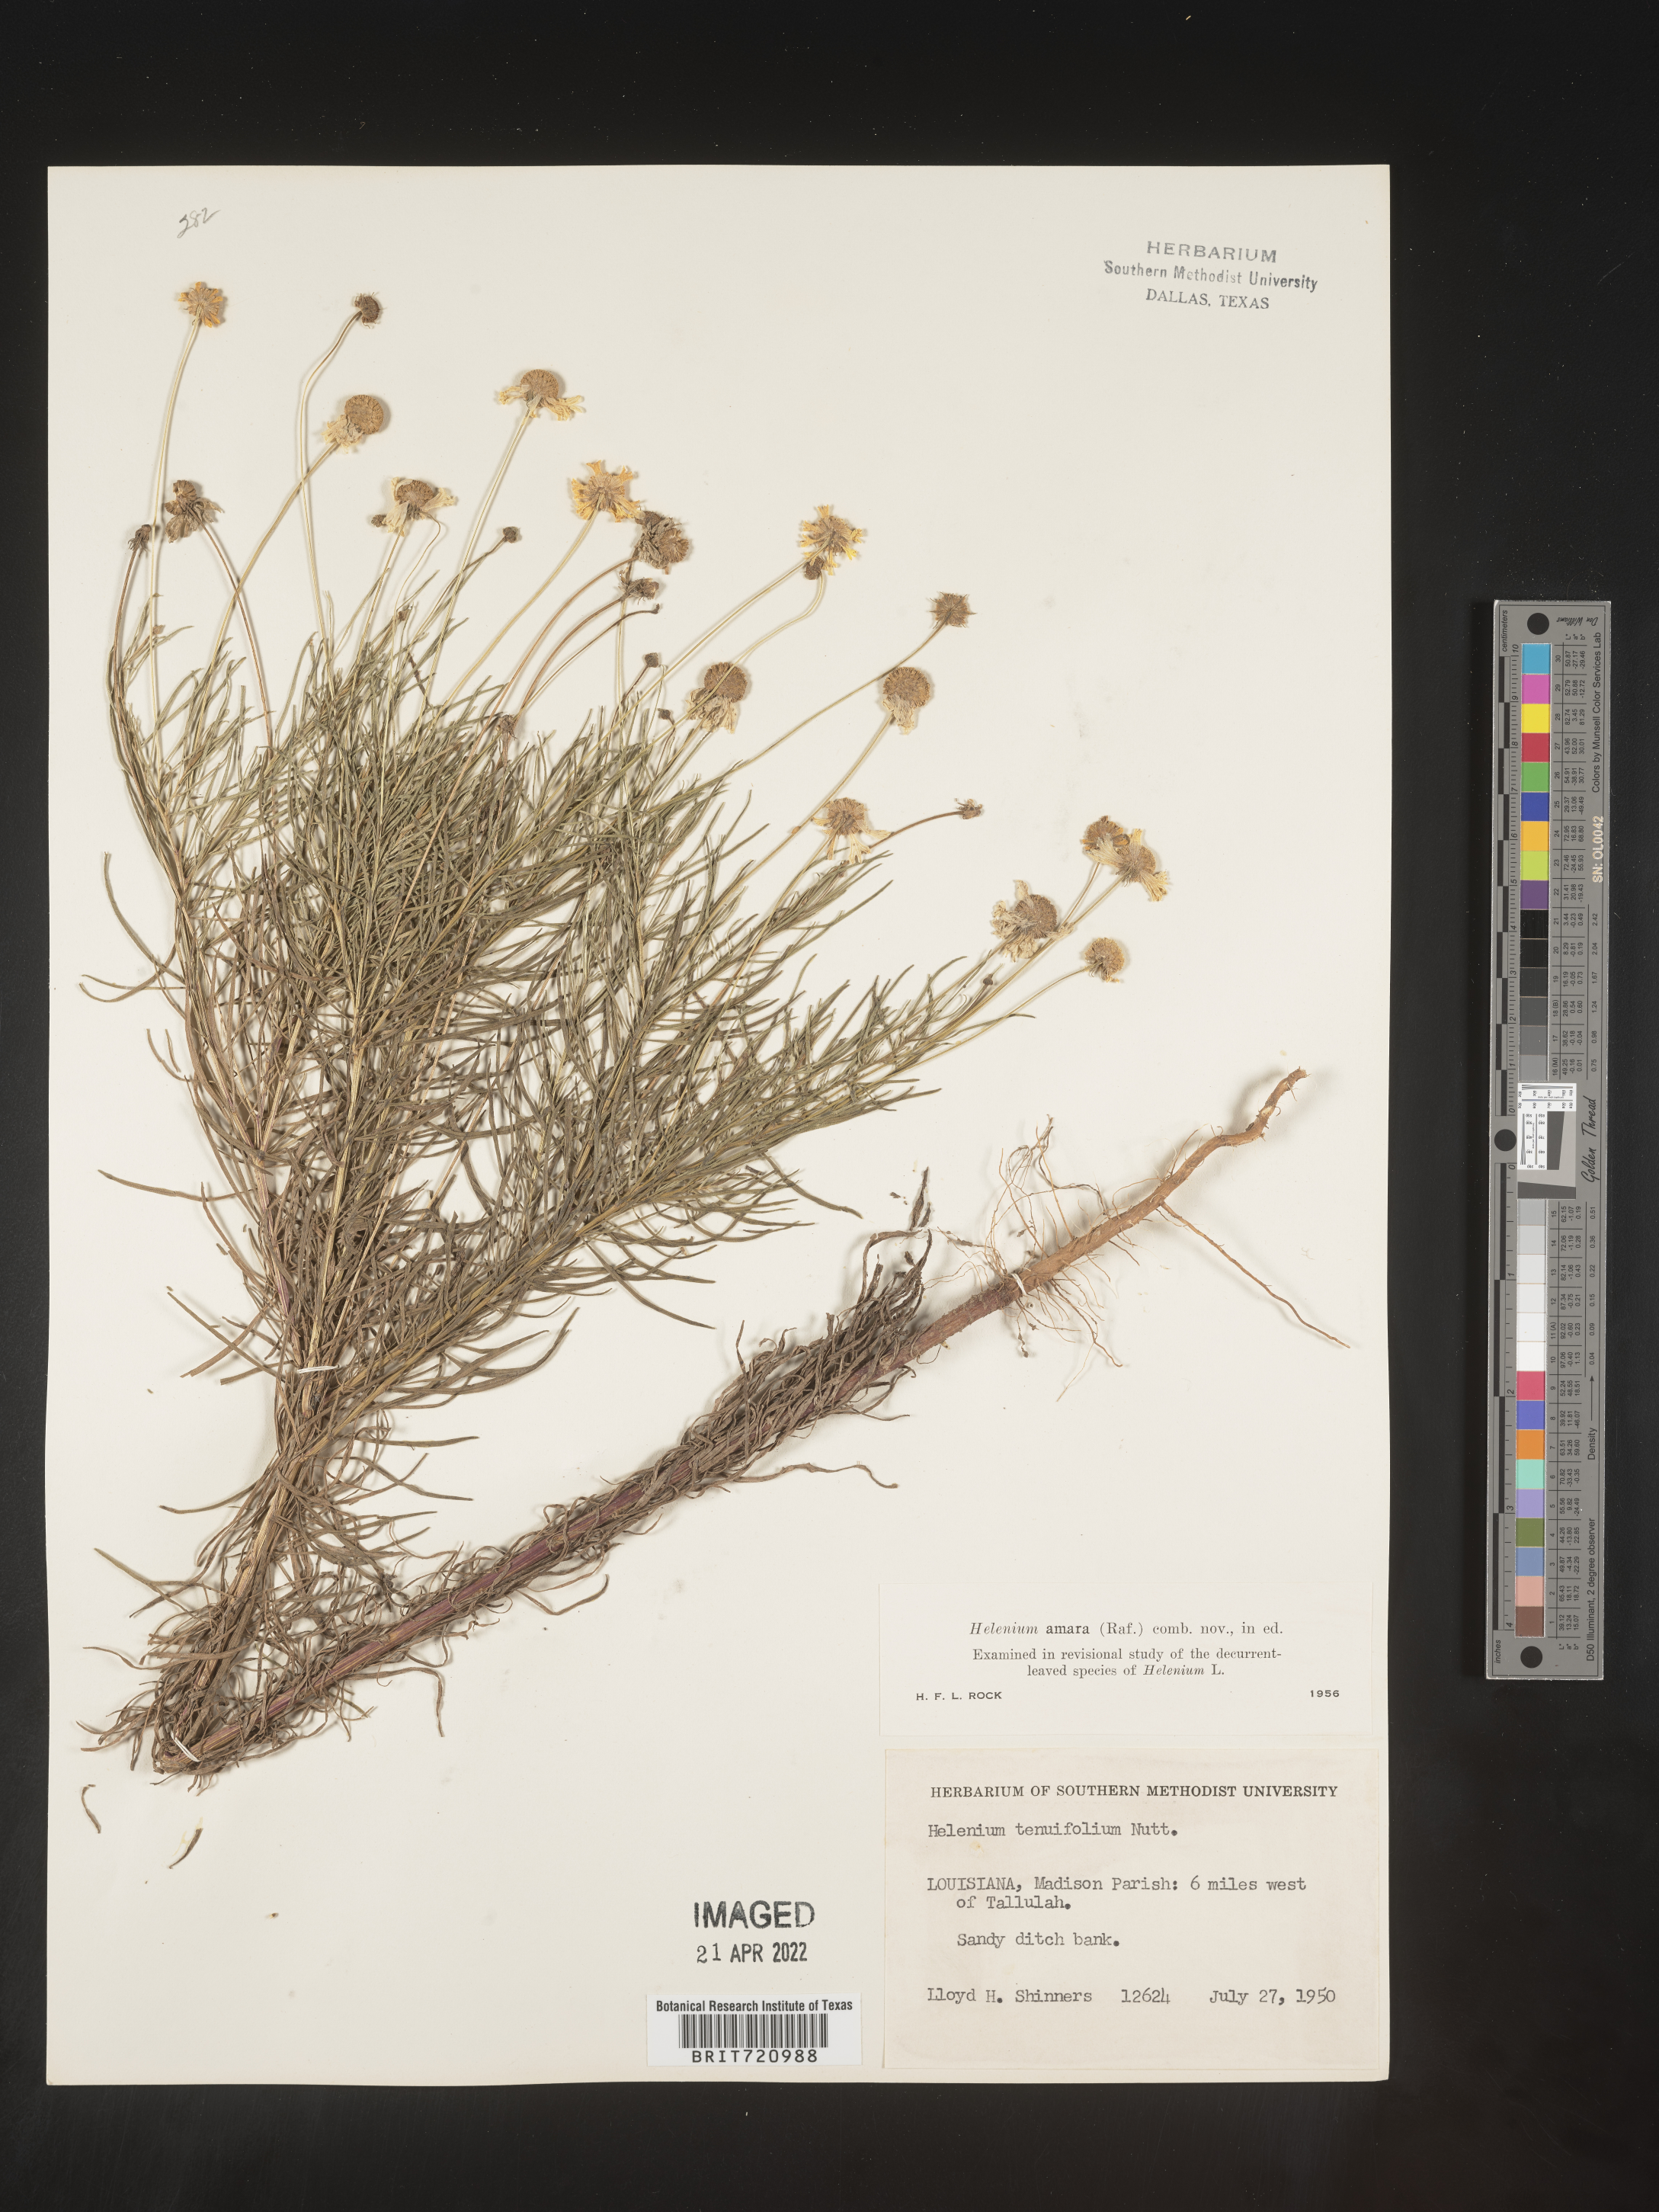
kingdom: Plantae
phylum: Tracheophyta
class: Magnoliopsida
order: Asterales
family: Asteraceae
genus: Helenium
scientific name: Helenium amarum
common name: Bitter sneezeweed
